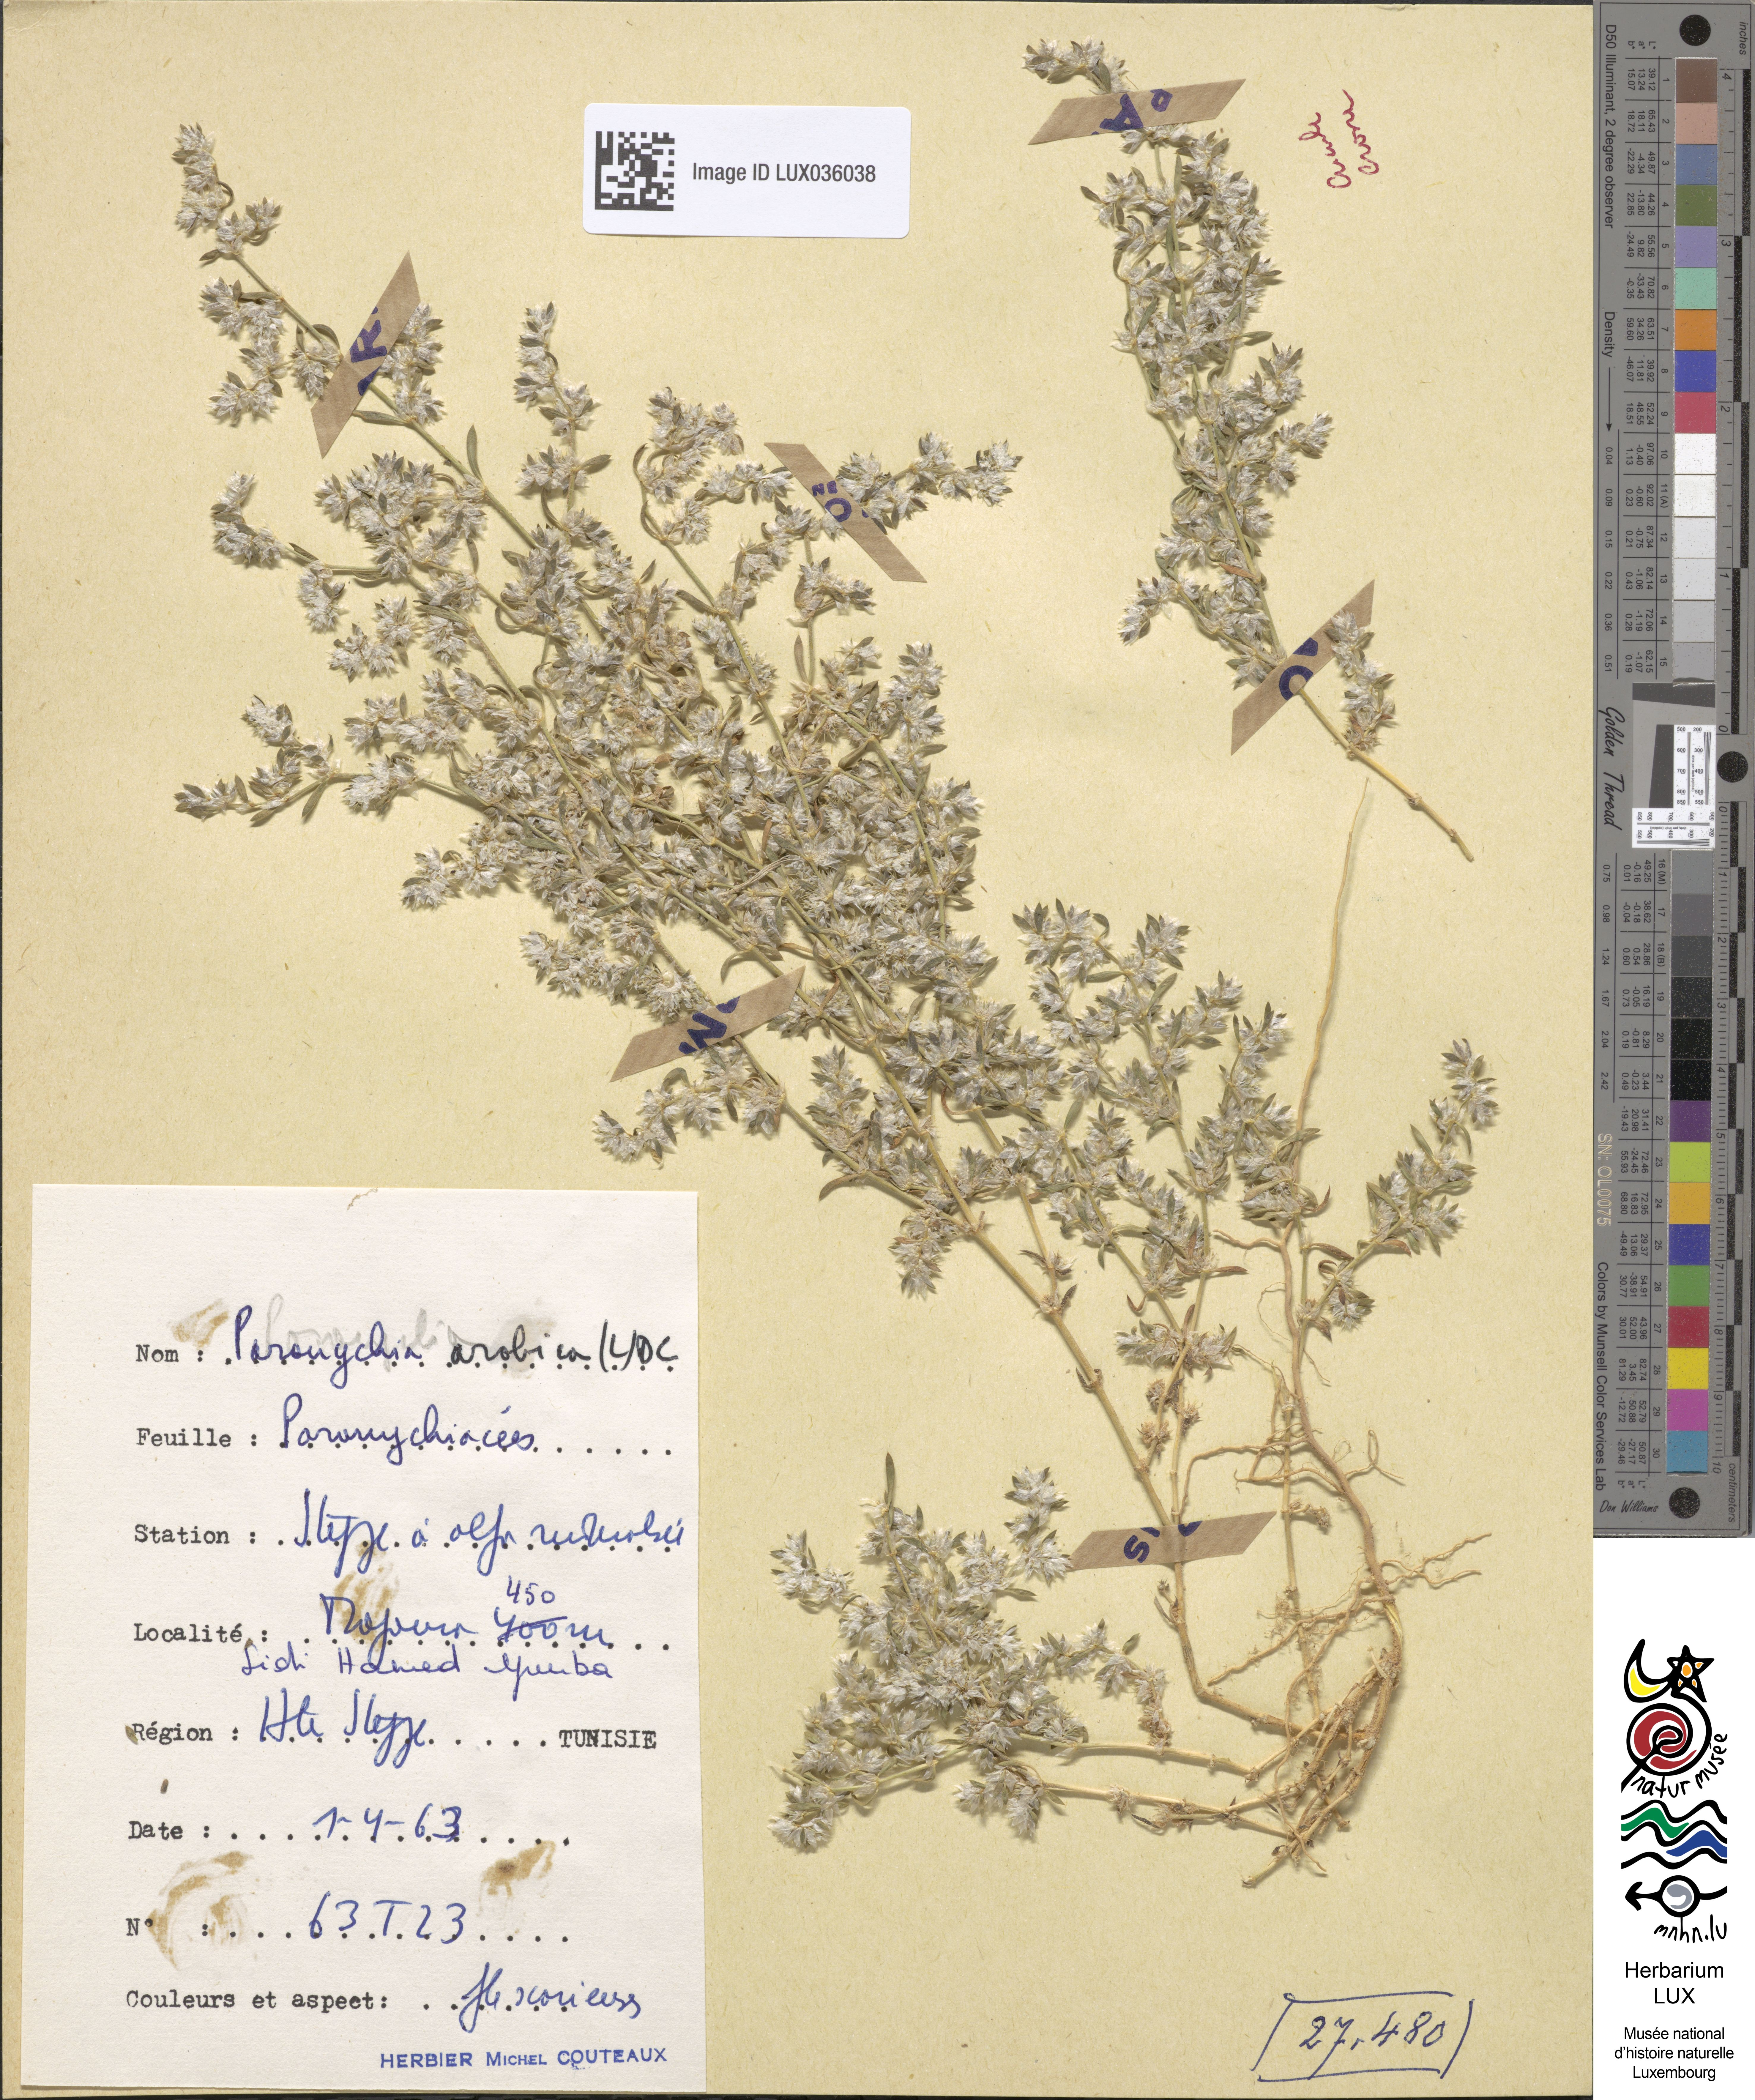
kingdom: Plantae
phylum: Tracheophyta
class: Magnoliopsida
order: Caryophyllales
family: Caryophyllaceae
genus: Paronychia
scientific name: Paronychia arabica
